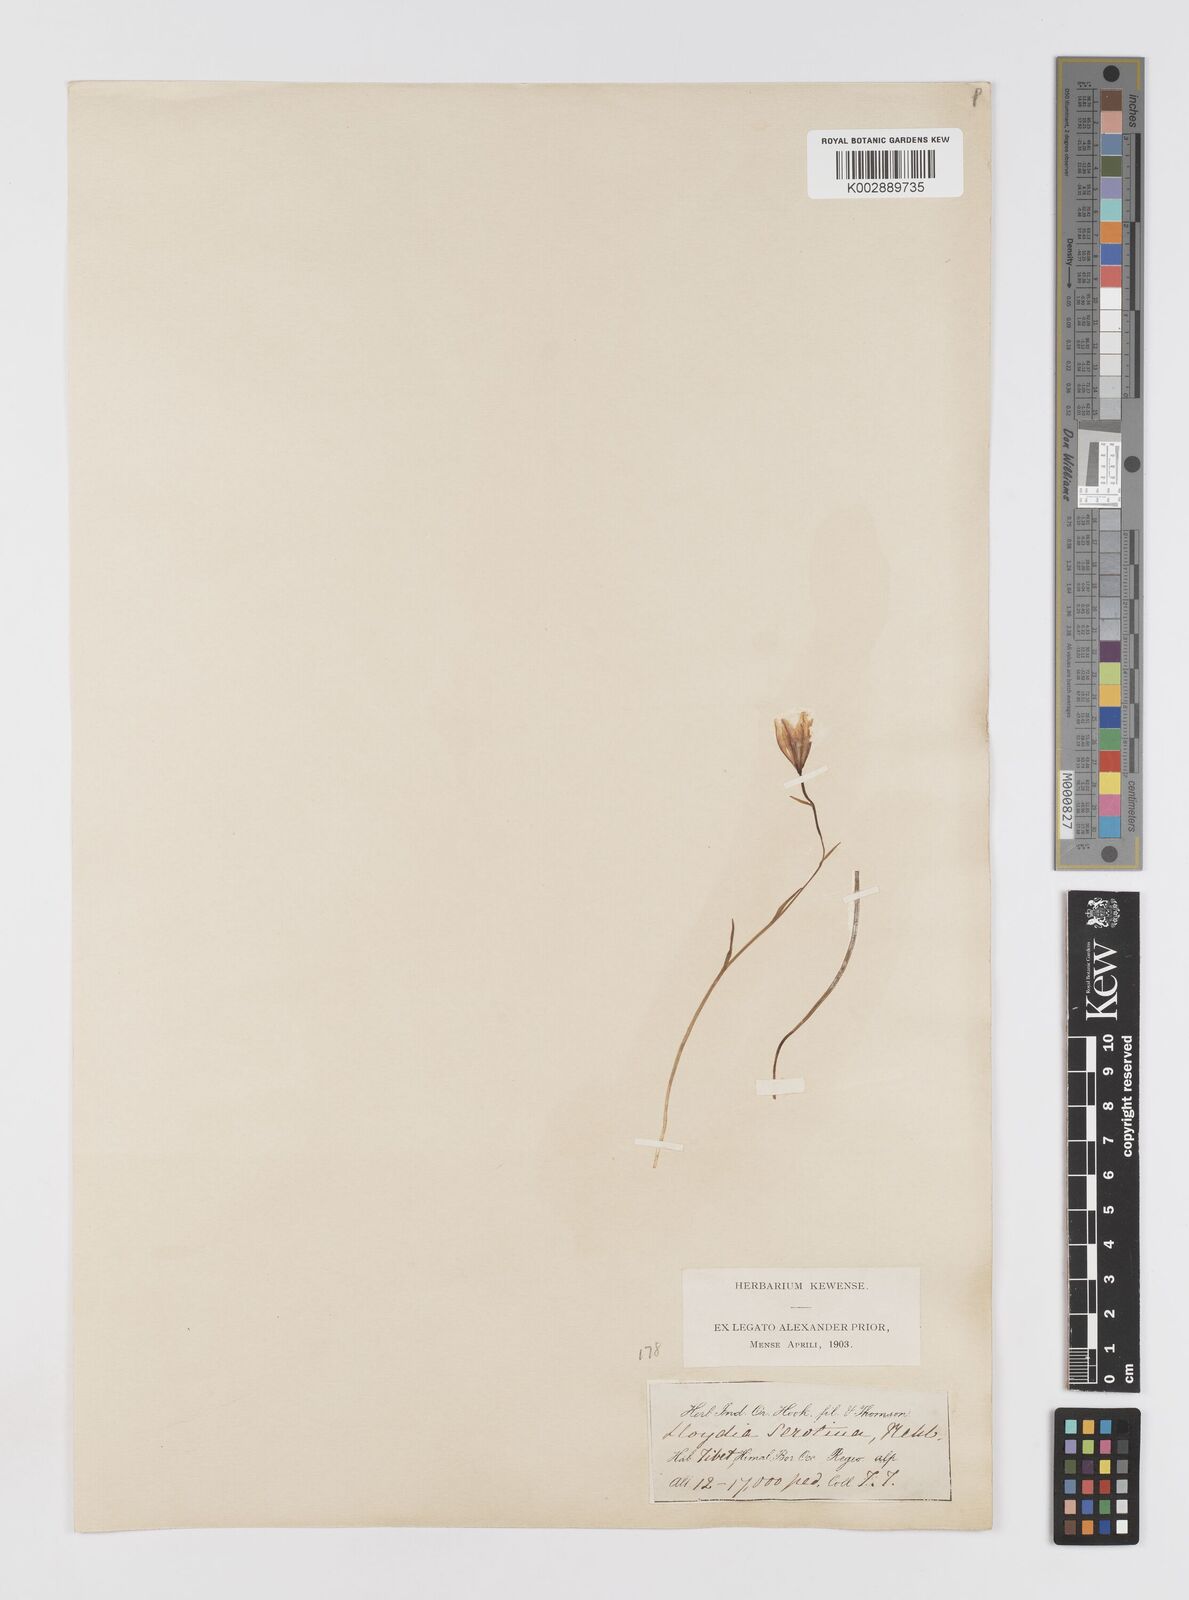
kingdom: Plantae
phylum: Tracheophyta
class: Liliopsida
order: Liliales
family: Liliaceae
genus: Gagea
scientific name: Gagea serotina
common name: Snowdon lily
